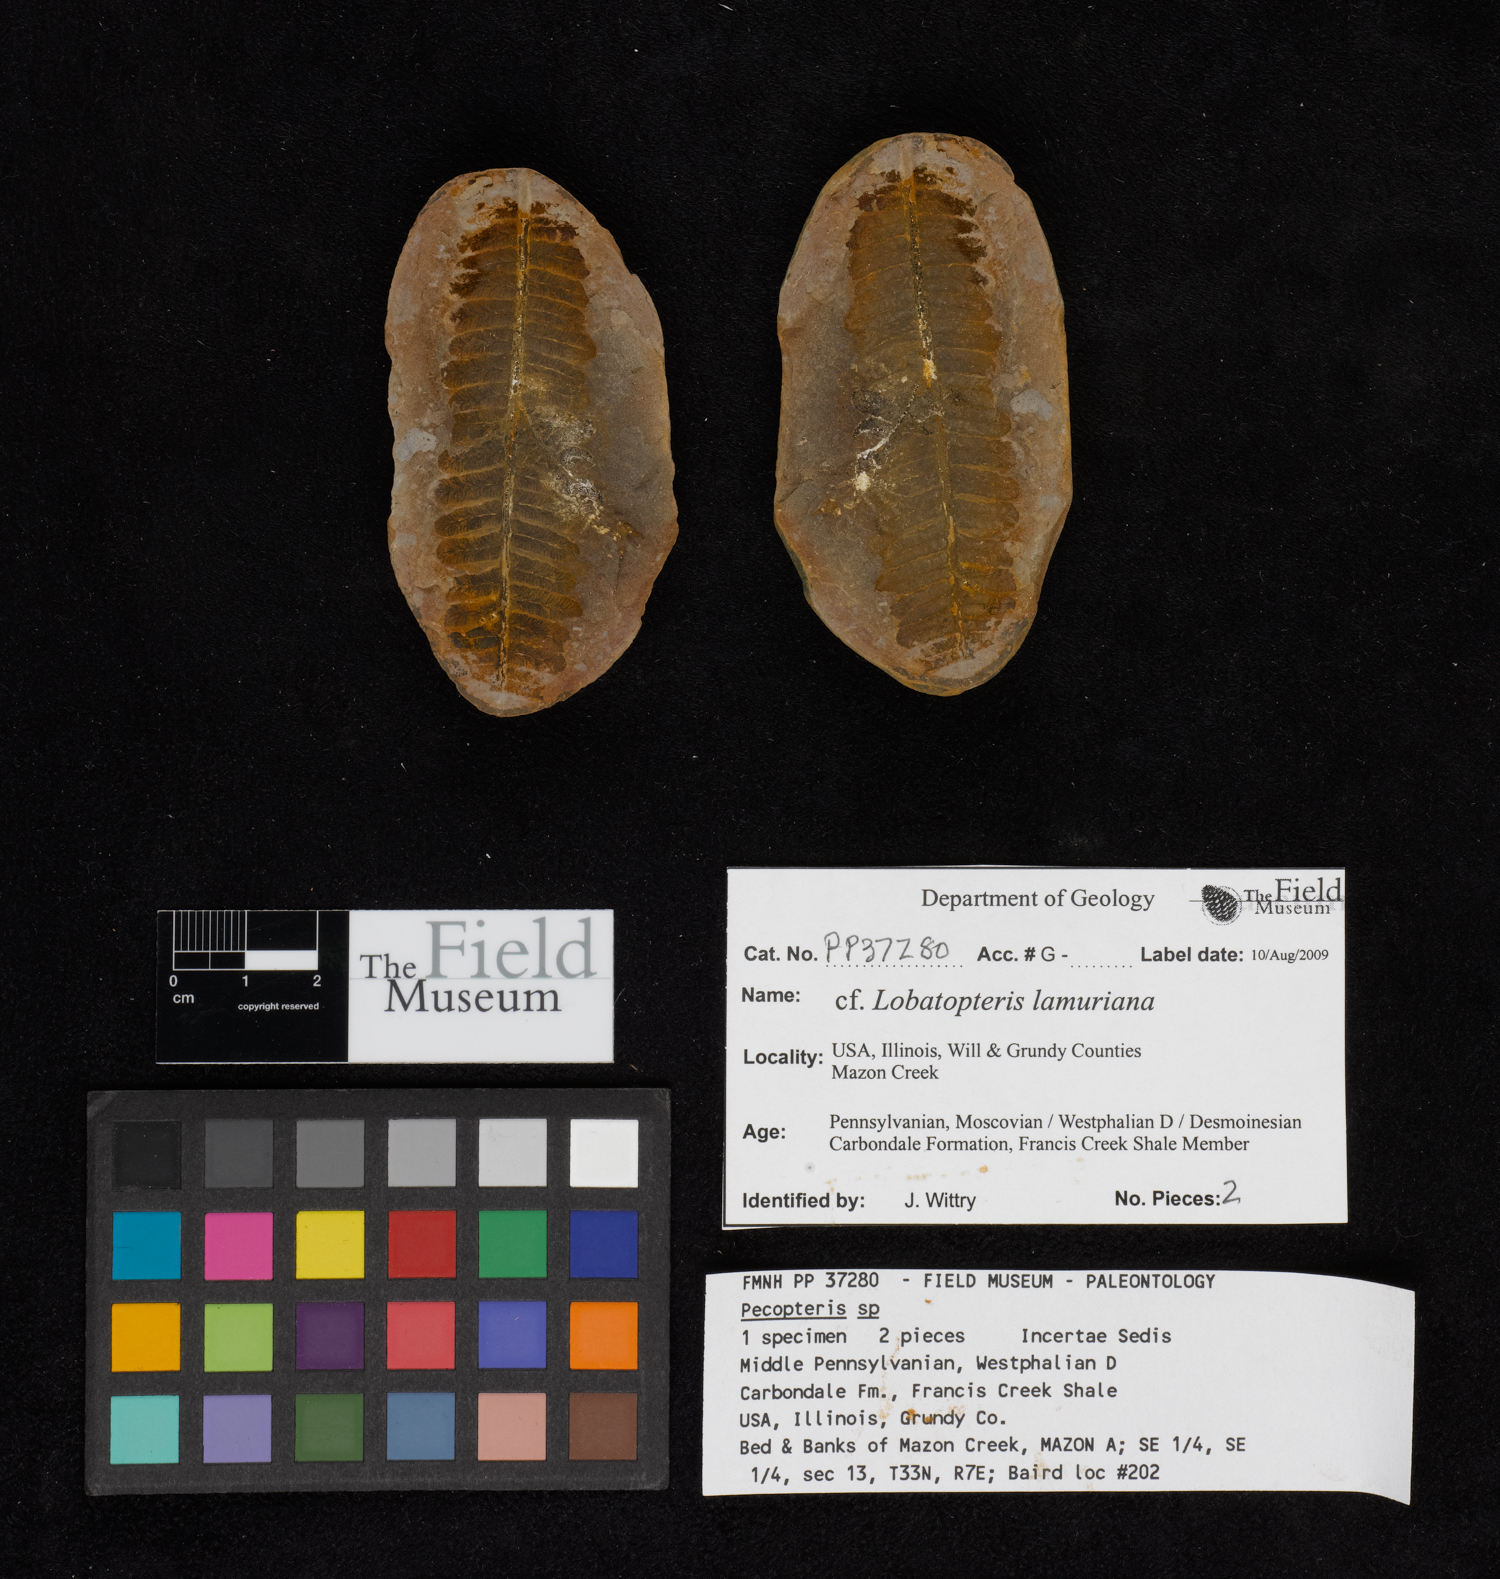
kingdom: Plantae
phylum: Tracheophyta
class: Polypodiopsida
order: Marattiales
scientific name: Marattiales
